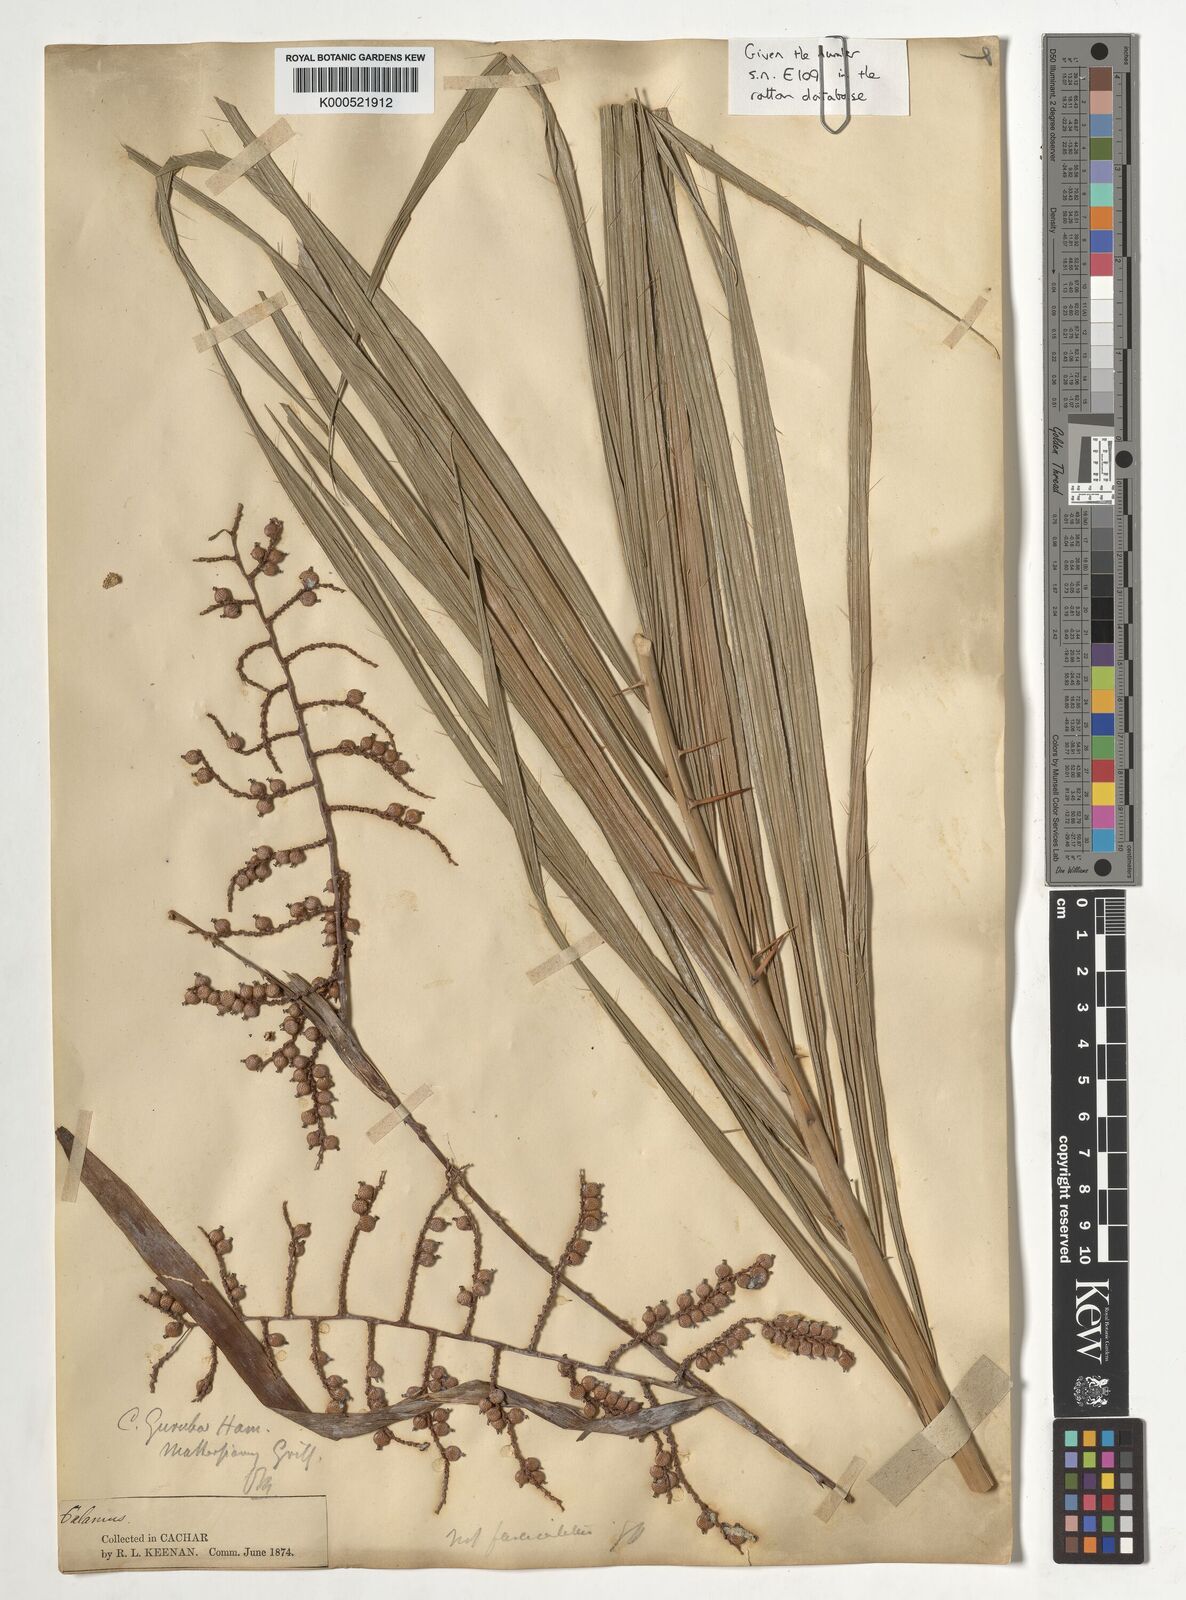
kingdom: Plantae
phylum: Tracheophyta
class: Liliopsida
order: Arecales
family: Arecaceae
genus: Calamus
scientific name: Calamus
